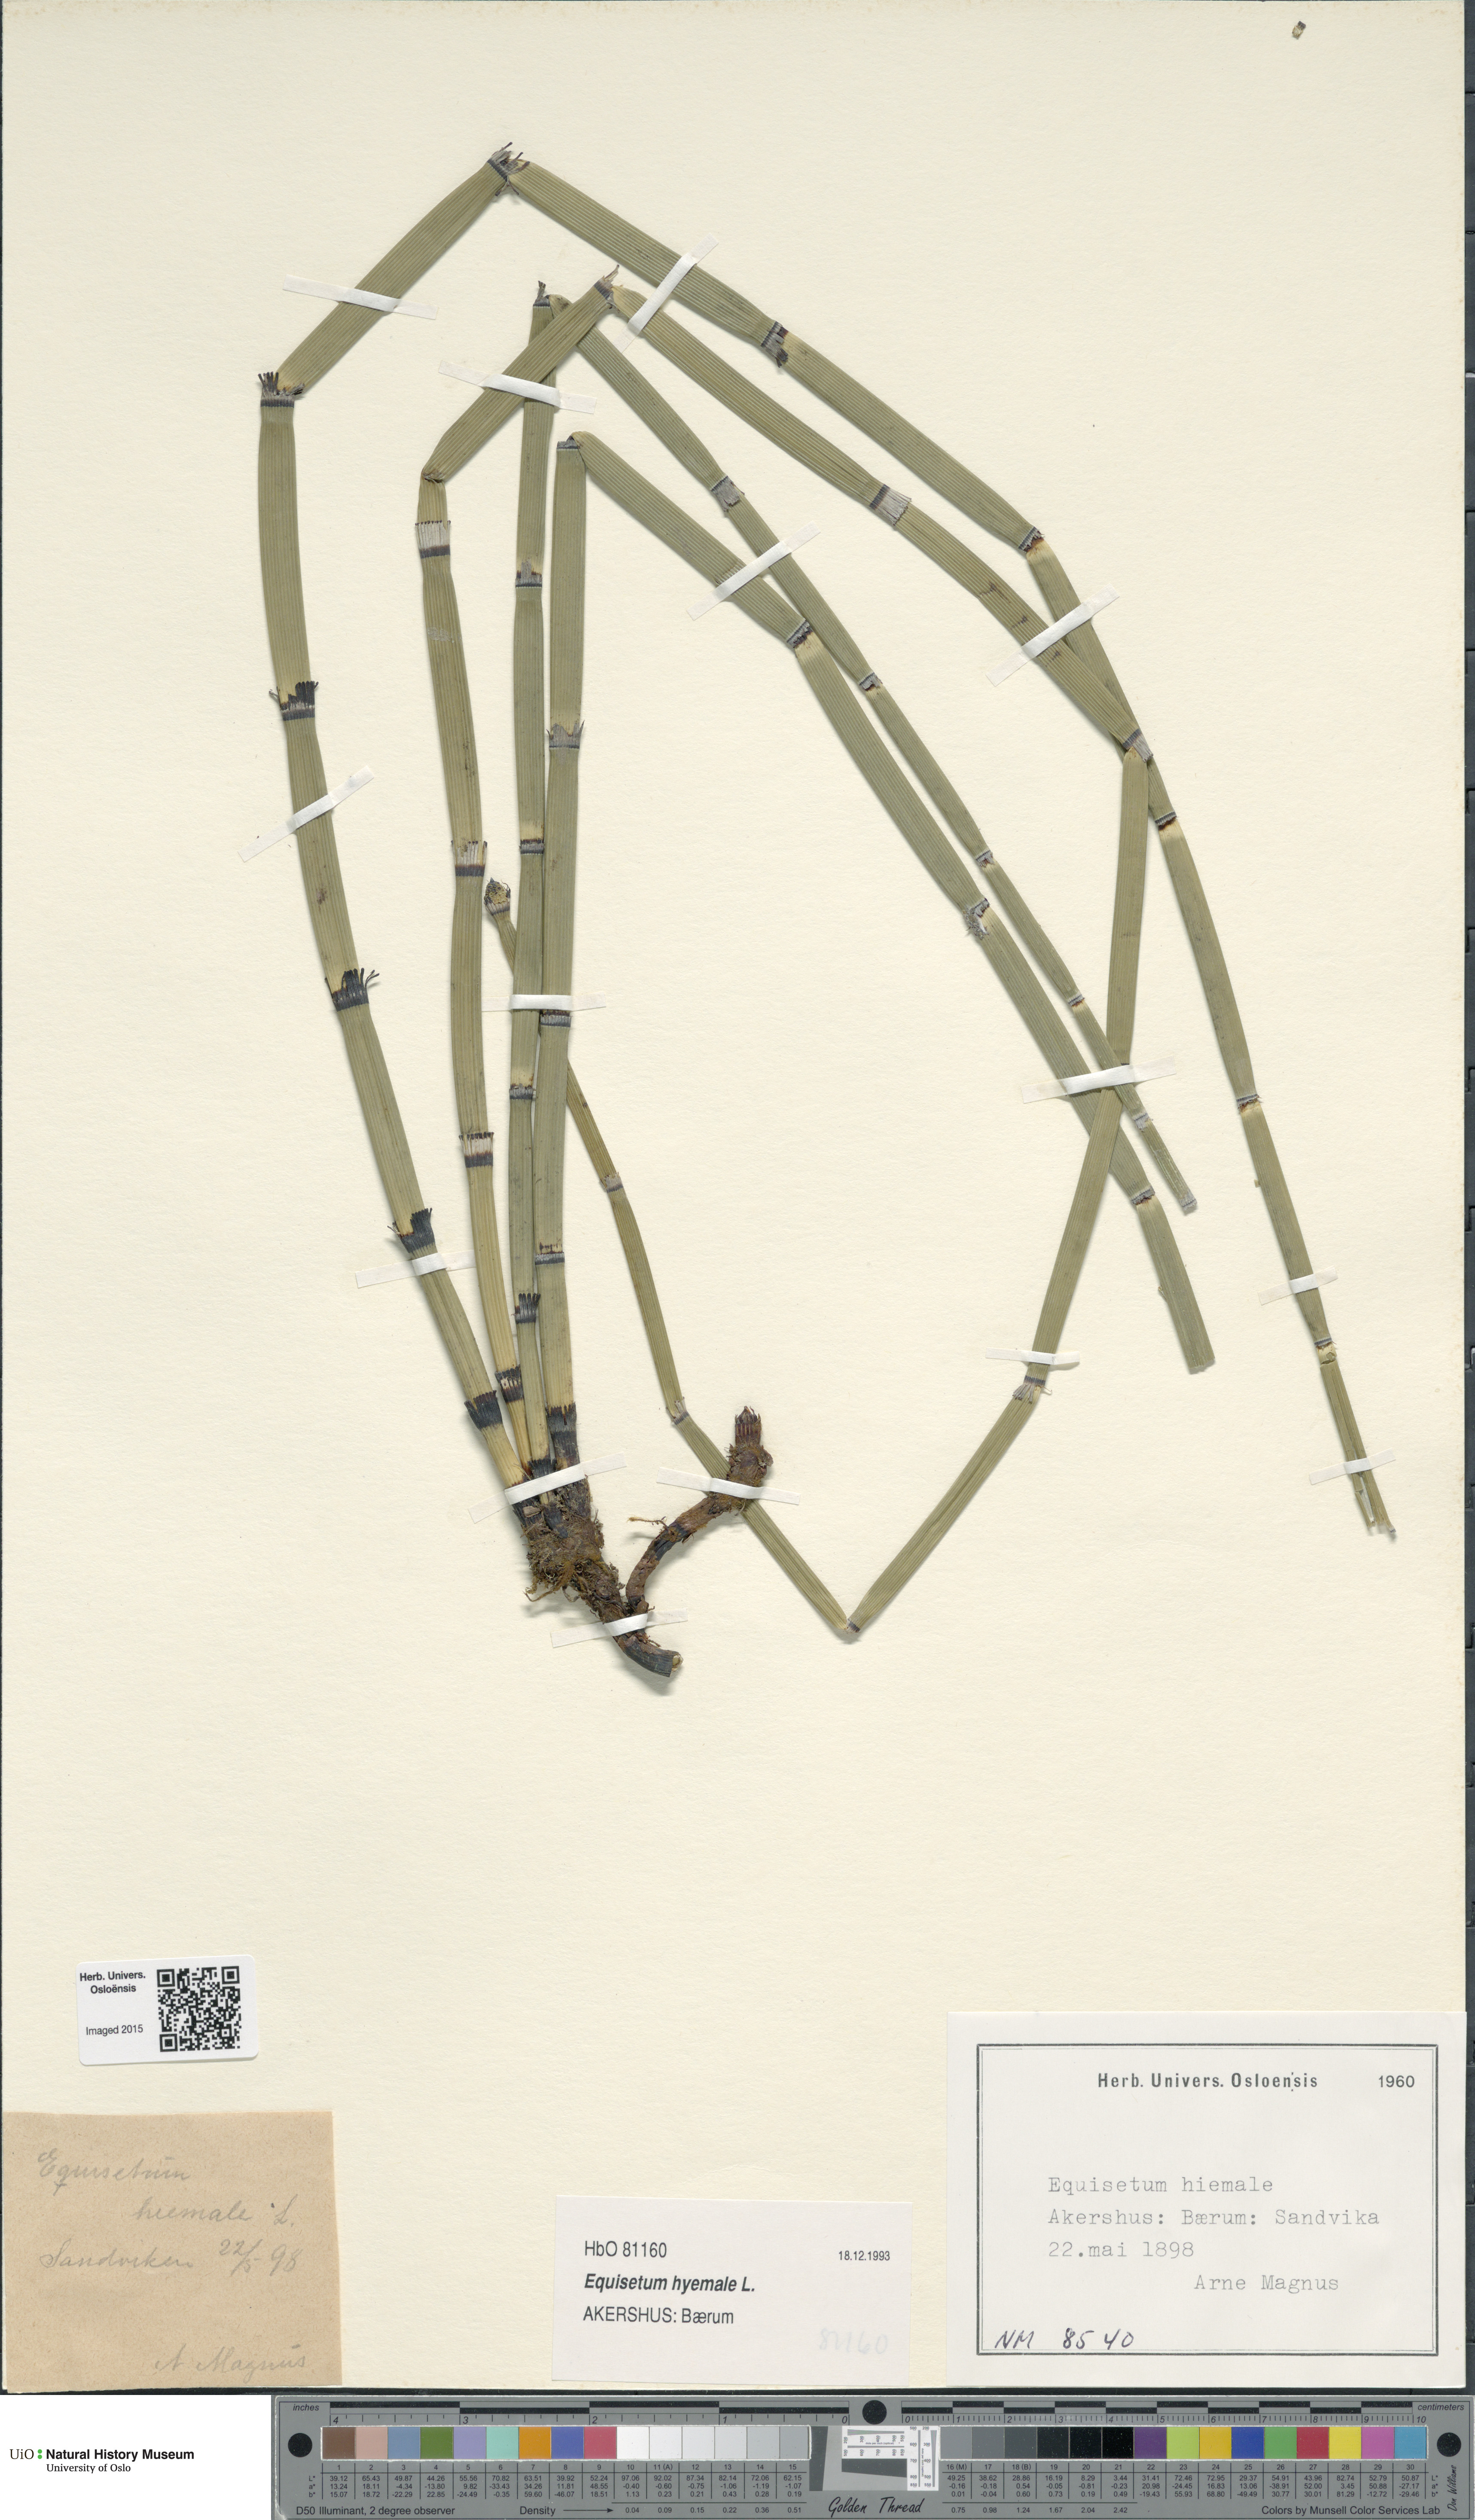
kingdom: Plantae
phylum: Tracheophyta
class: Polypodiopsida
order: Equisetales
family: Equisetaceae
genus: Equisetum
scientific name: Equisetum hyemale
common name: Rough horsetail
